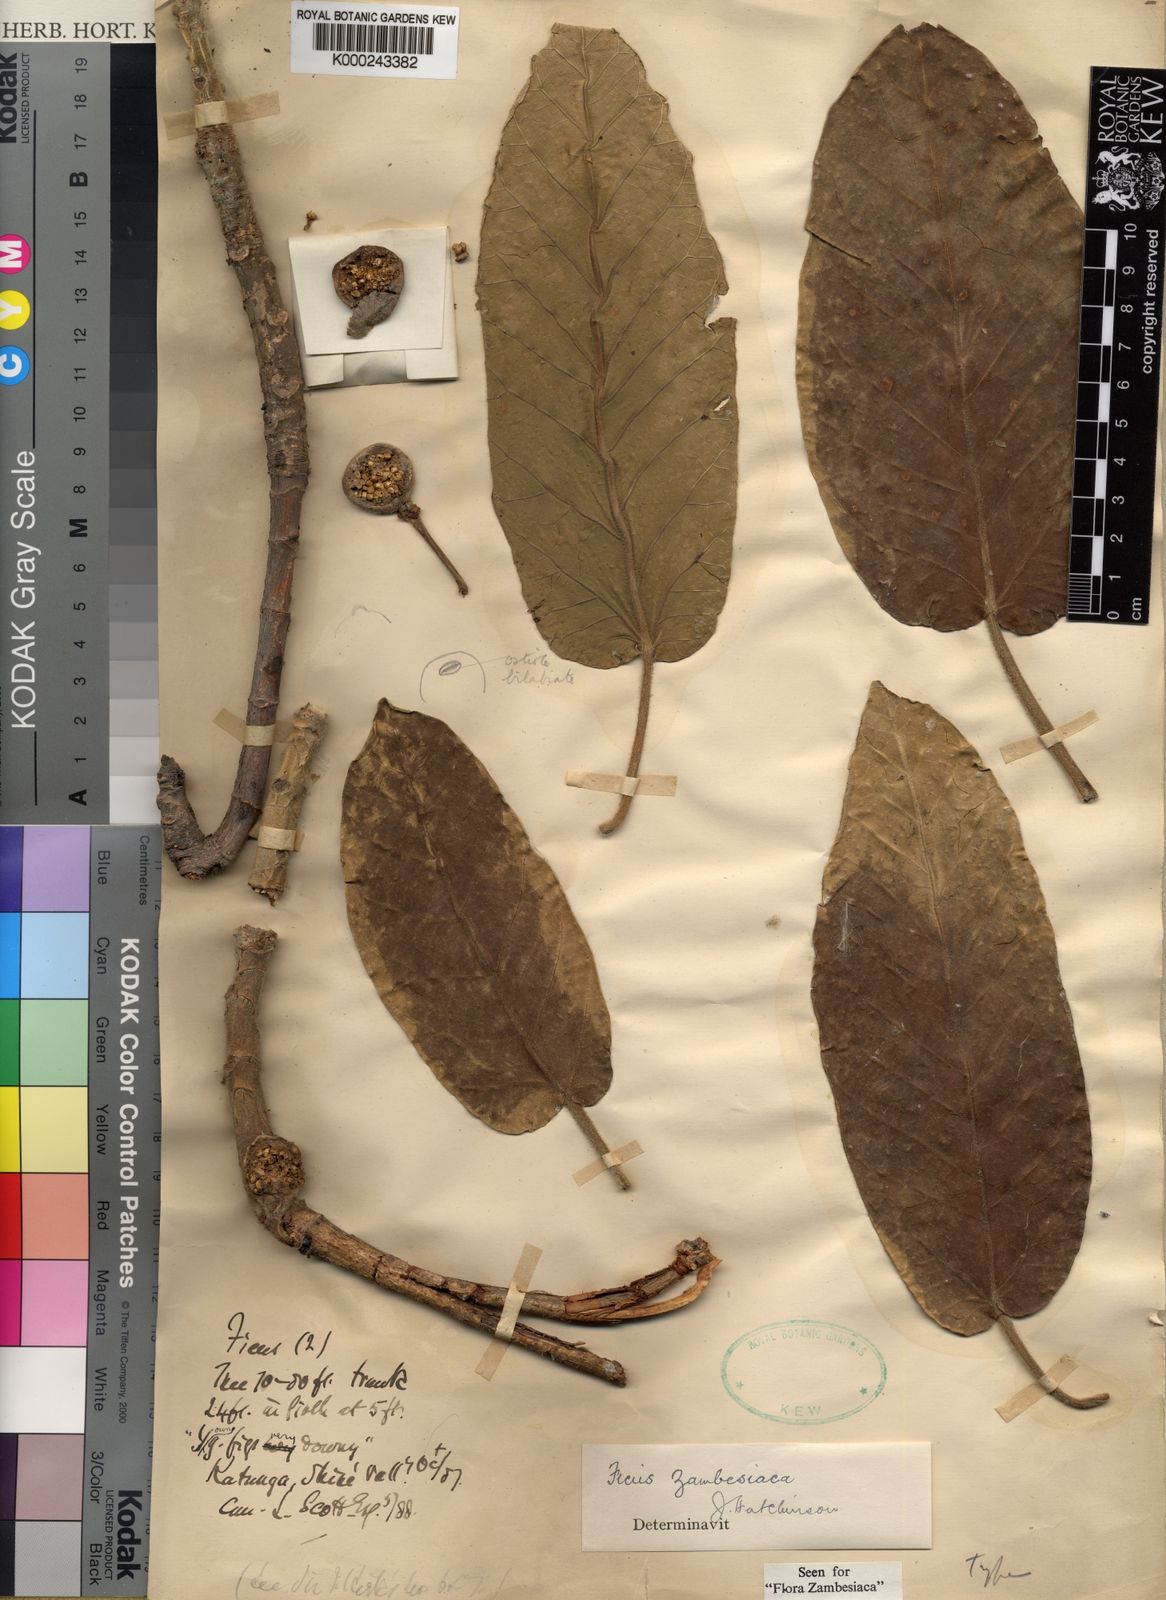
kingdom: Plantae
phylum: Tracheophyta
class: Magnoliopsida
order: Rosales
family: Moraceae
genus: Ficus
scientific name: Ficus bussei
